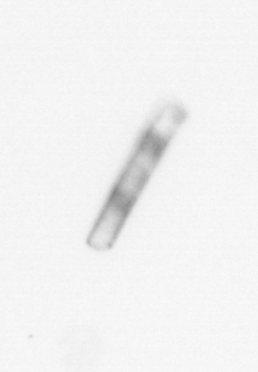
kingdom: Chromista
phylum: Ochrophyta
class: Bacillariophyceae
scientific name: Bacillariophyceae
